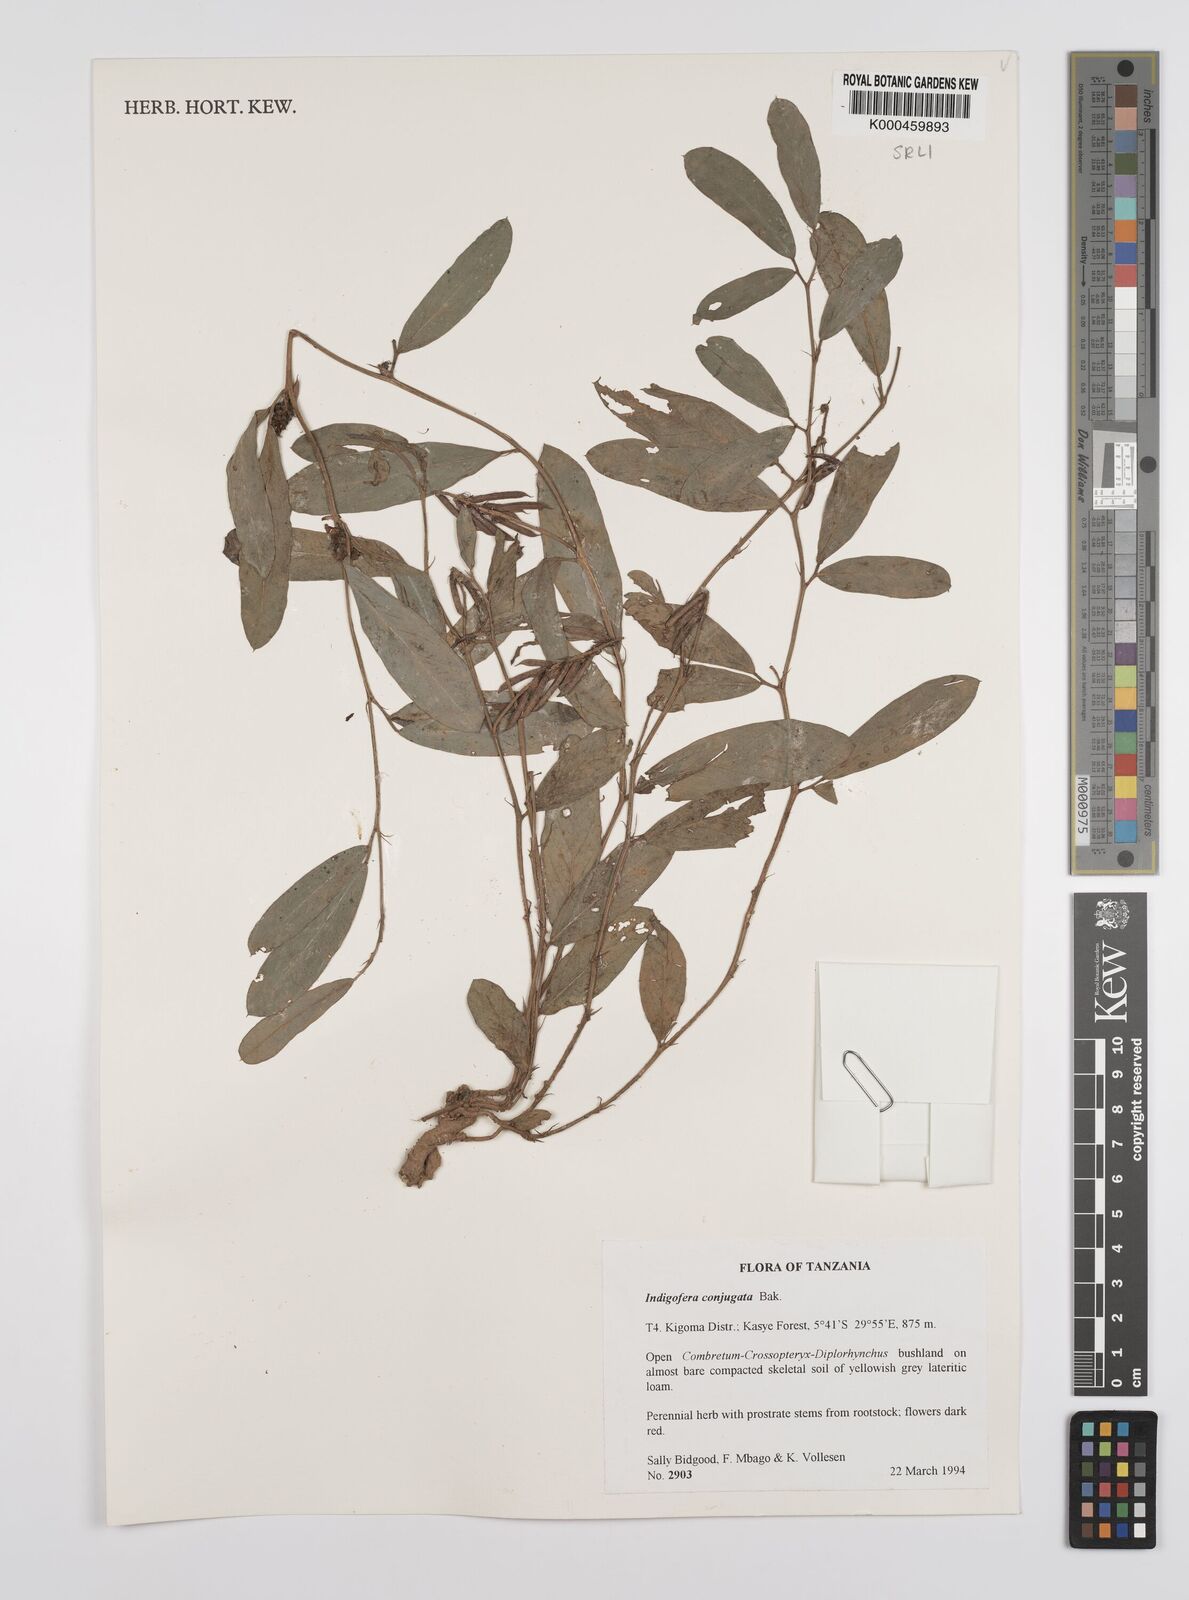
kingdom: Plantae
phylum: Tracheophyta
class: Magnoliopsida
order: Fabales
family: Fabaceae
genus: Indigofera
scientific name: Indigofera conjugata
